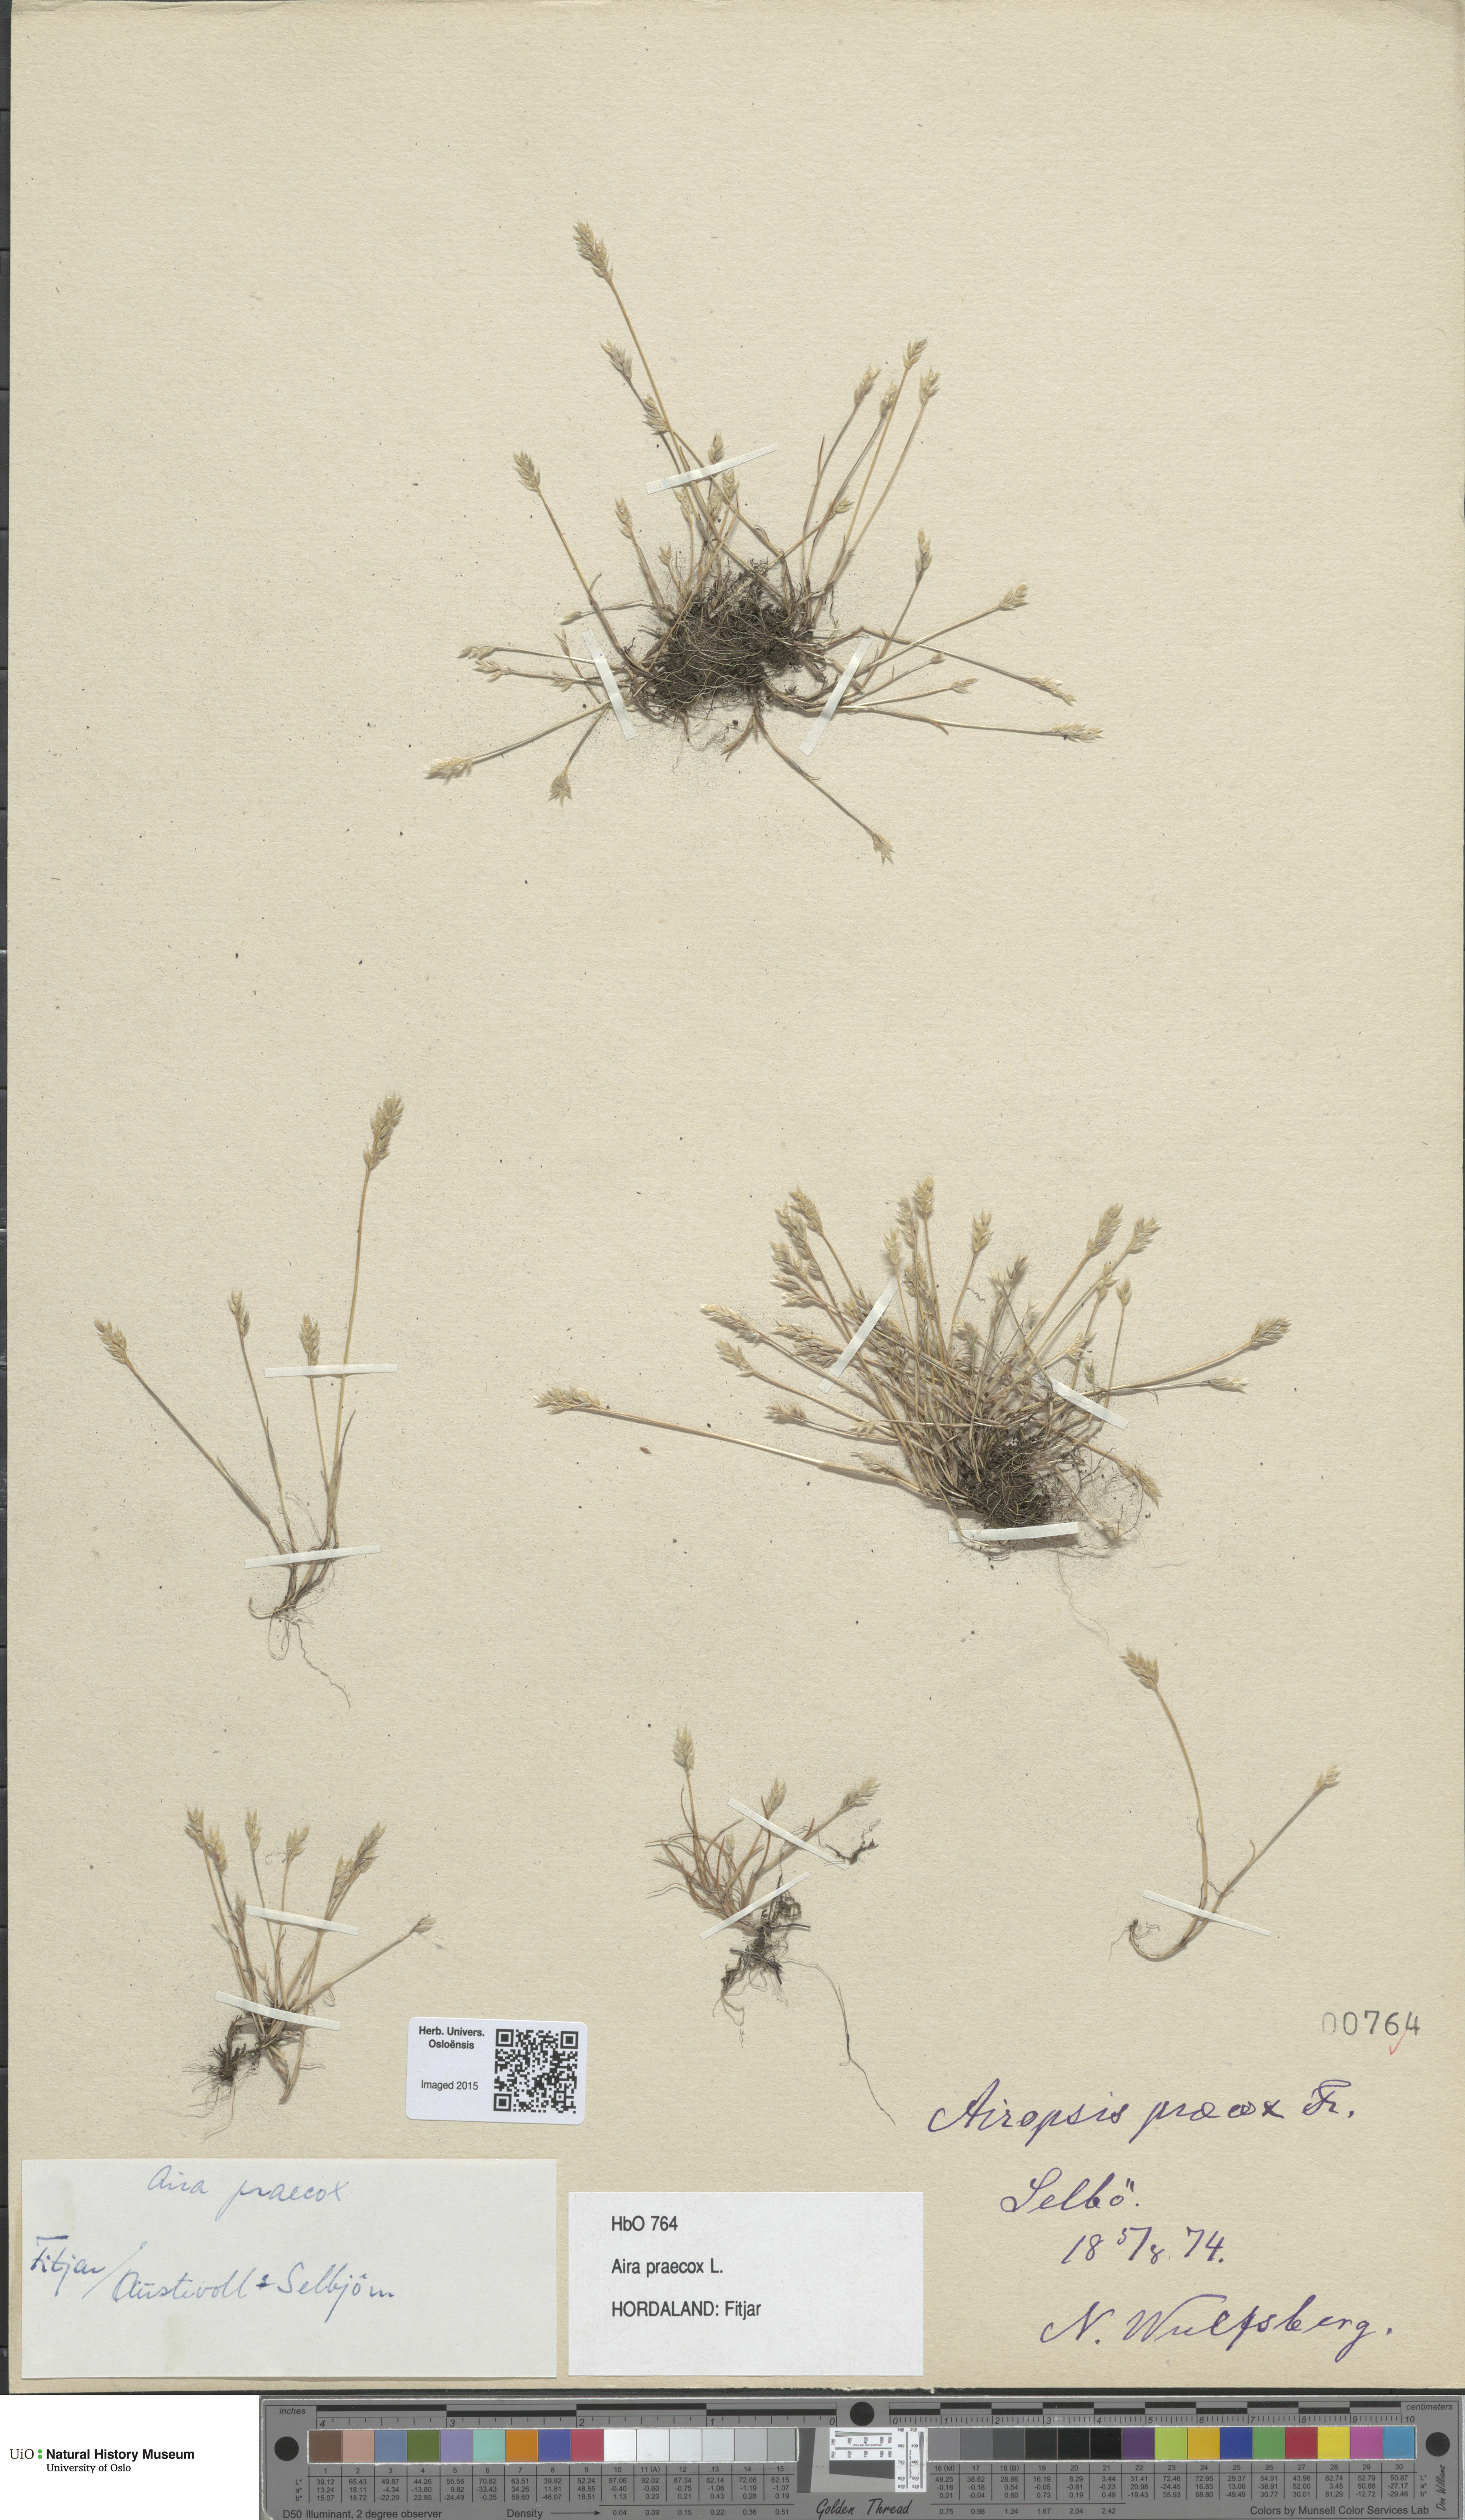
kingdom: Plantae
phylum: Tracheophyta
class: Liliopsida
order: Poales
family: Poaceae
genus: Aira
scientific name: Aira praecox
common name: Early hair-grass
